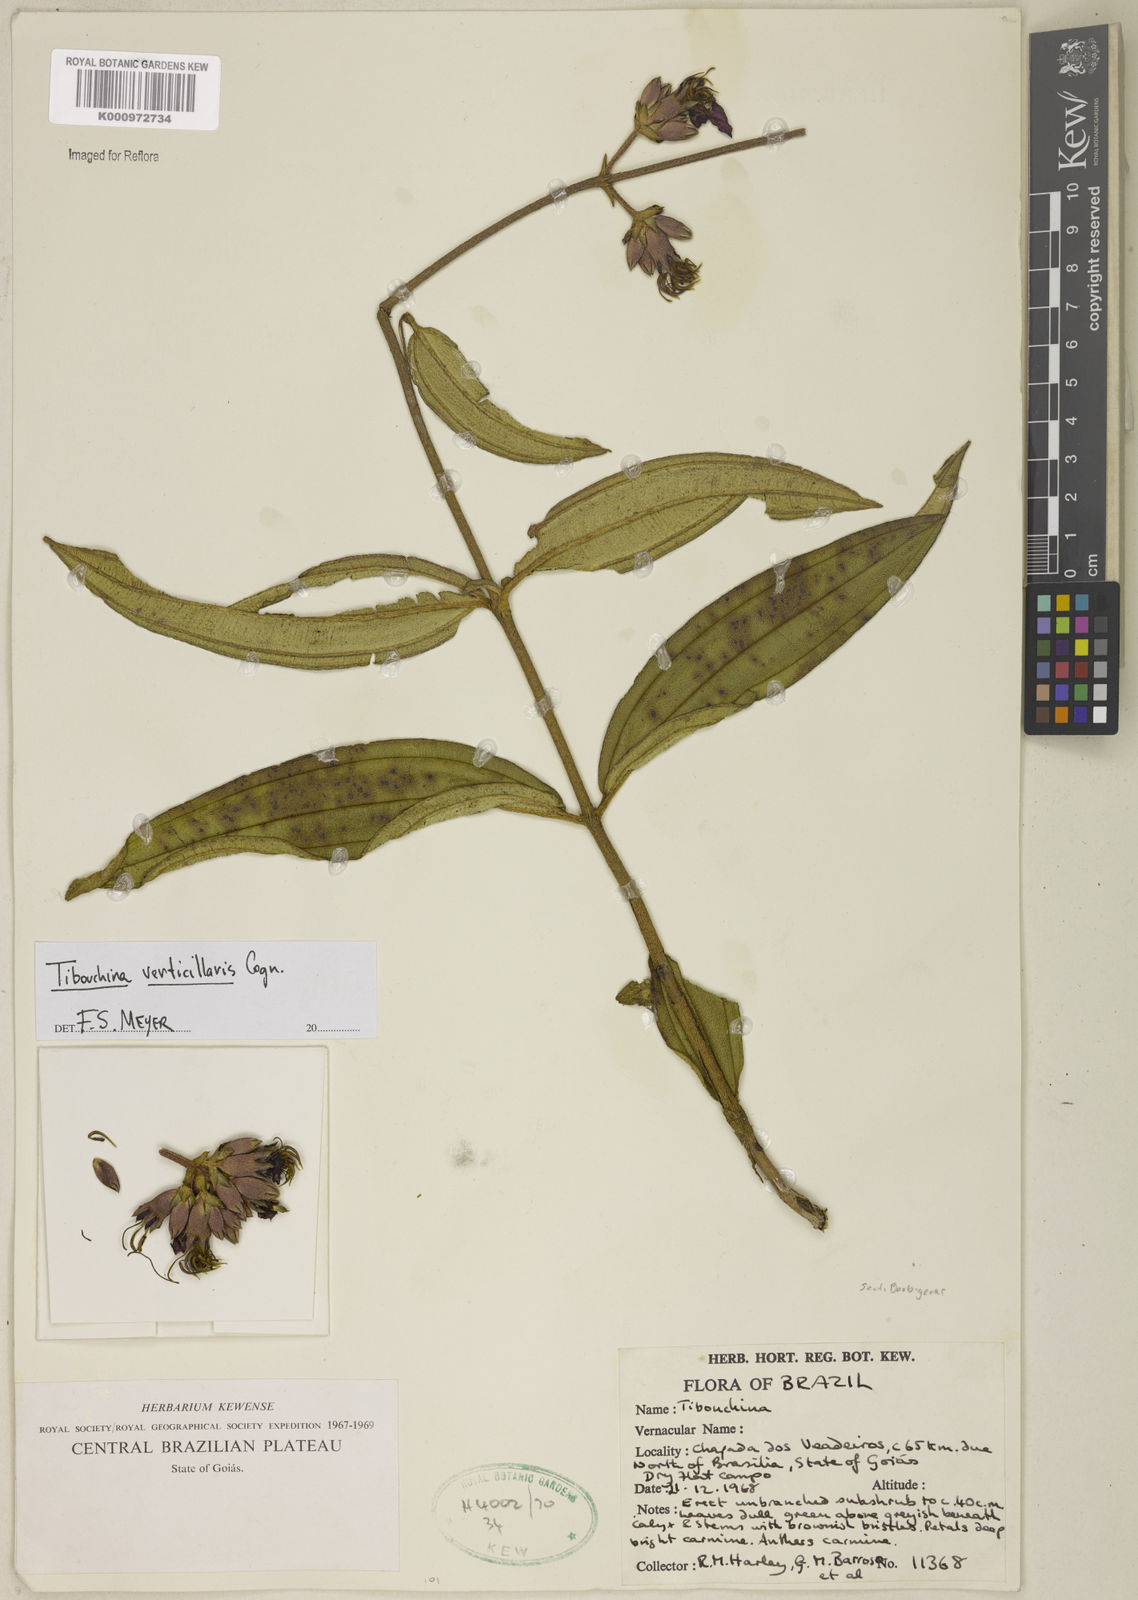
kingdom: Plantae
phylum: Tracheophyta
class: Magnoliopsida
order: Myrtales
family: Melastomataceae
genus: Tibouchina
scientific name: Tibouchina verticillaris
